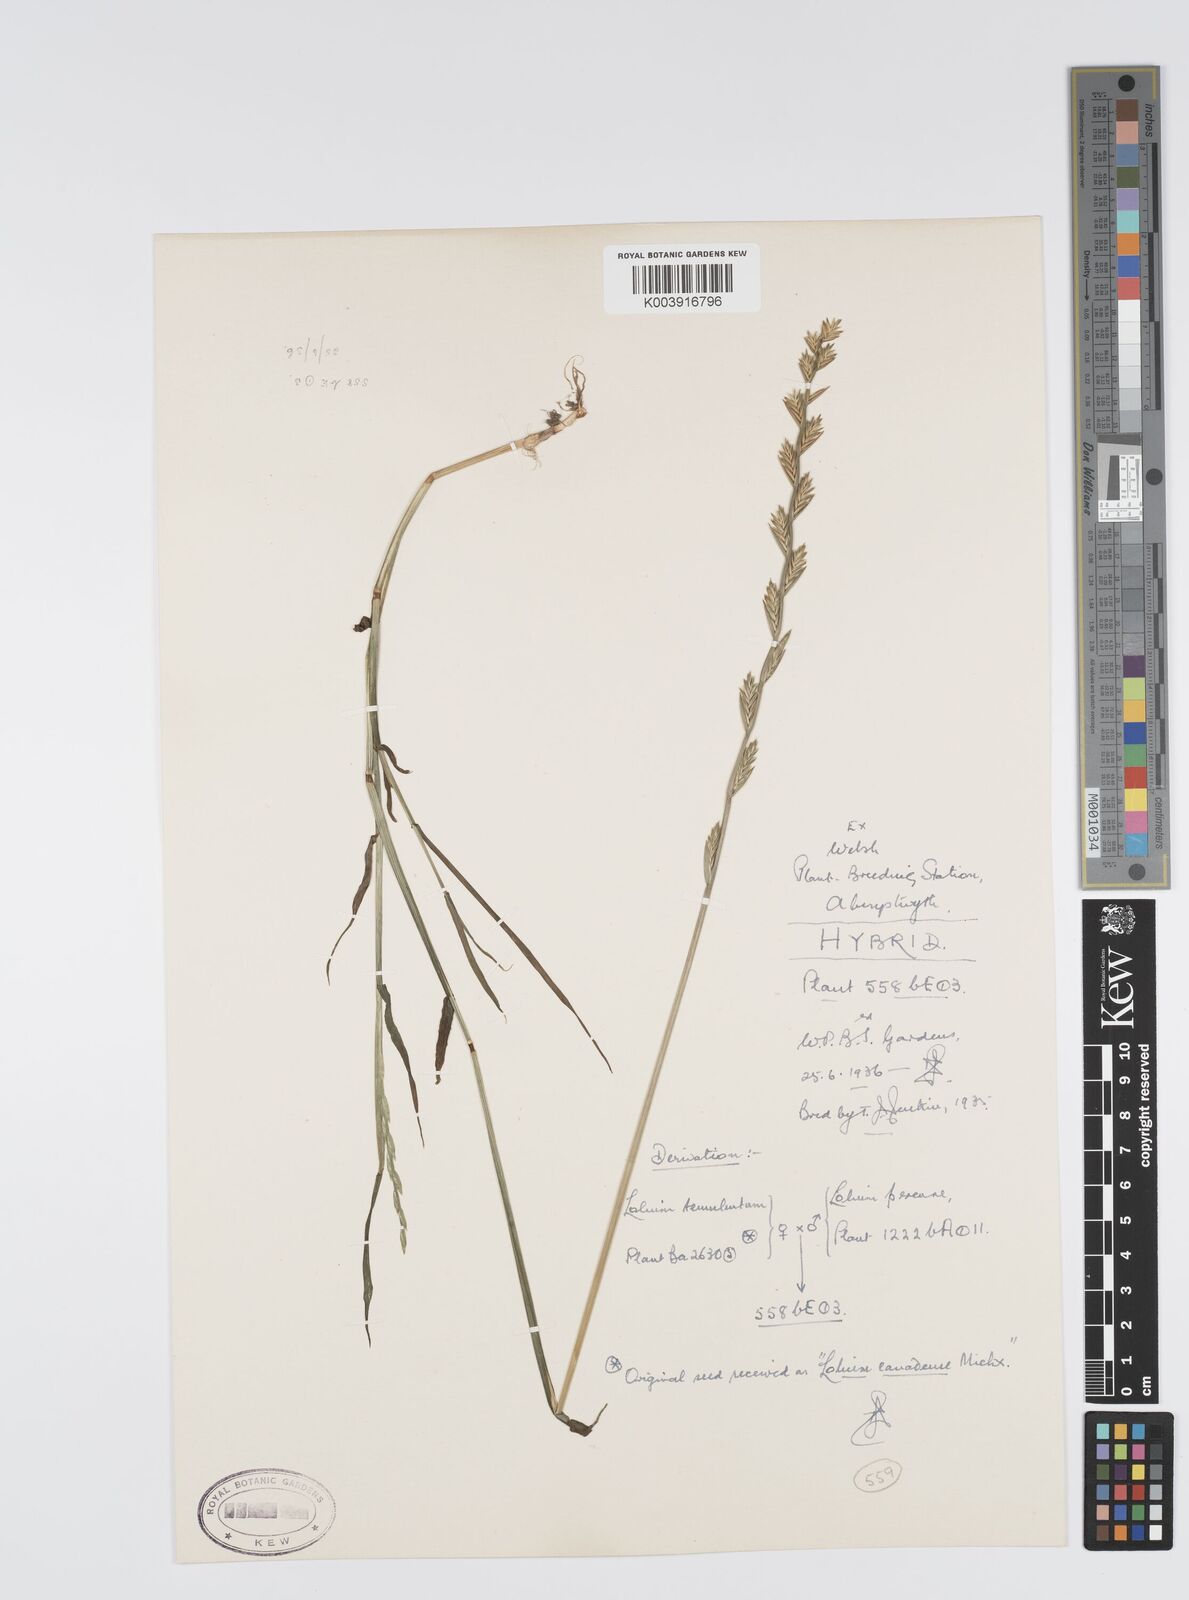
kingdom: Plantae
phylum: Tracheophyta
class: Liliopsida
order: Poales
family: Poaceae
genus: Lolium
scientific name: Lolium perenne
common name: Perennial ryegrass
